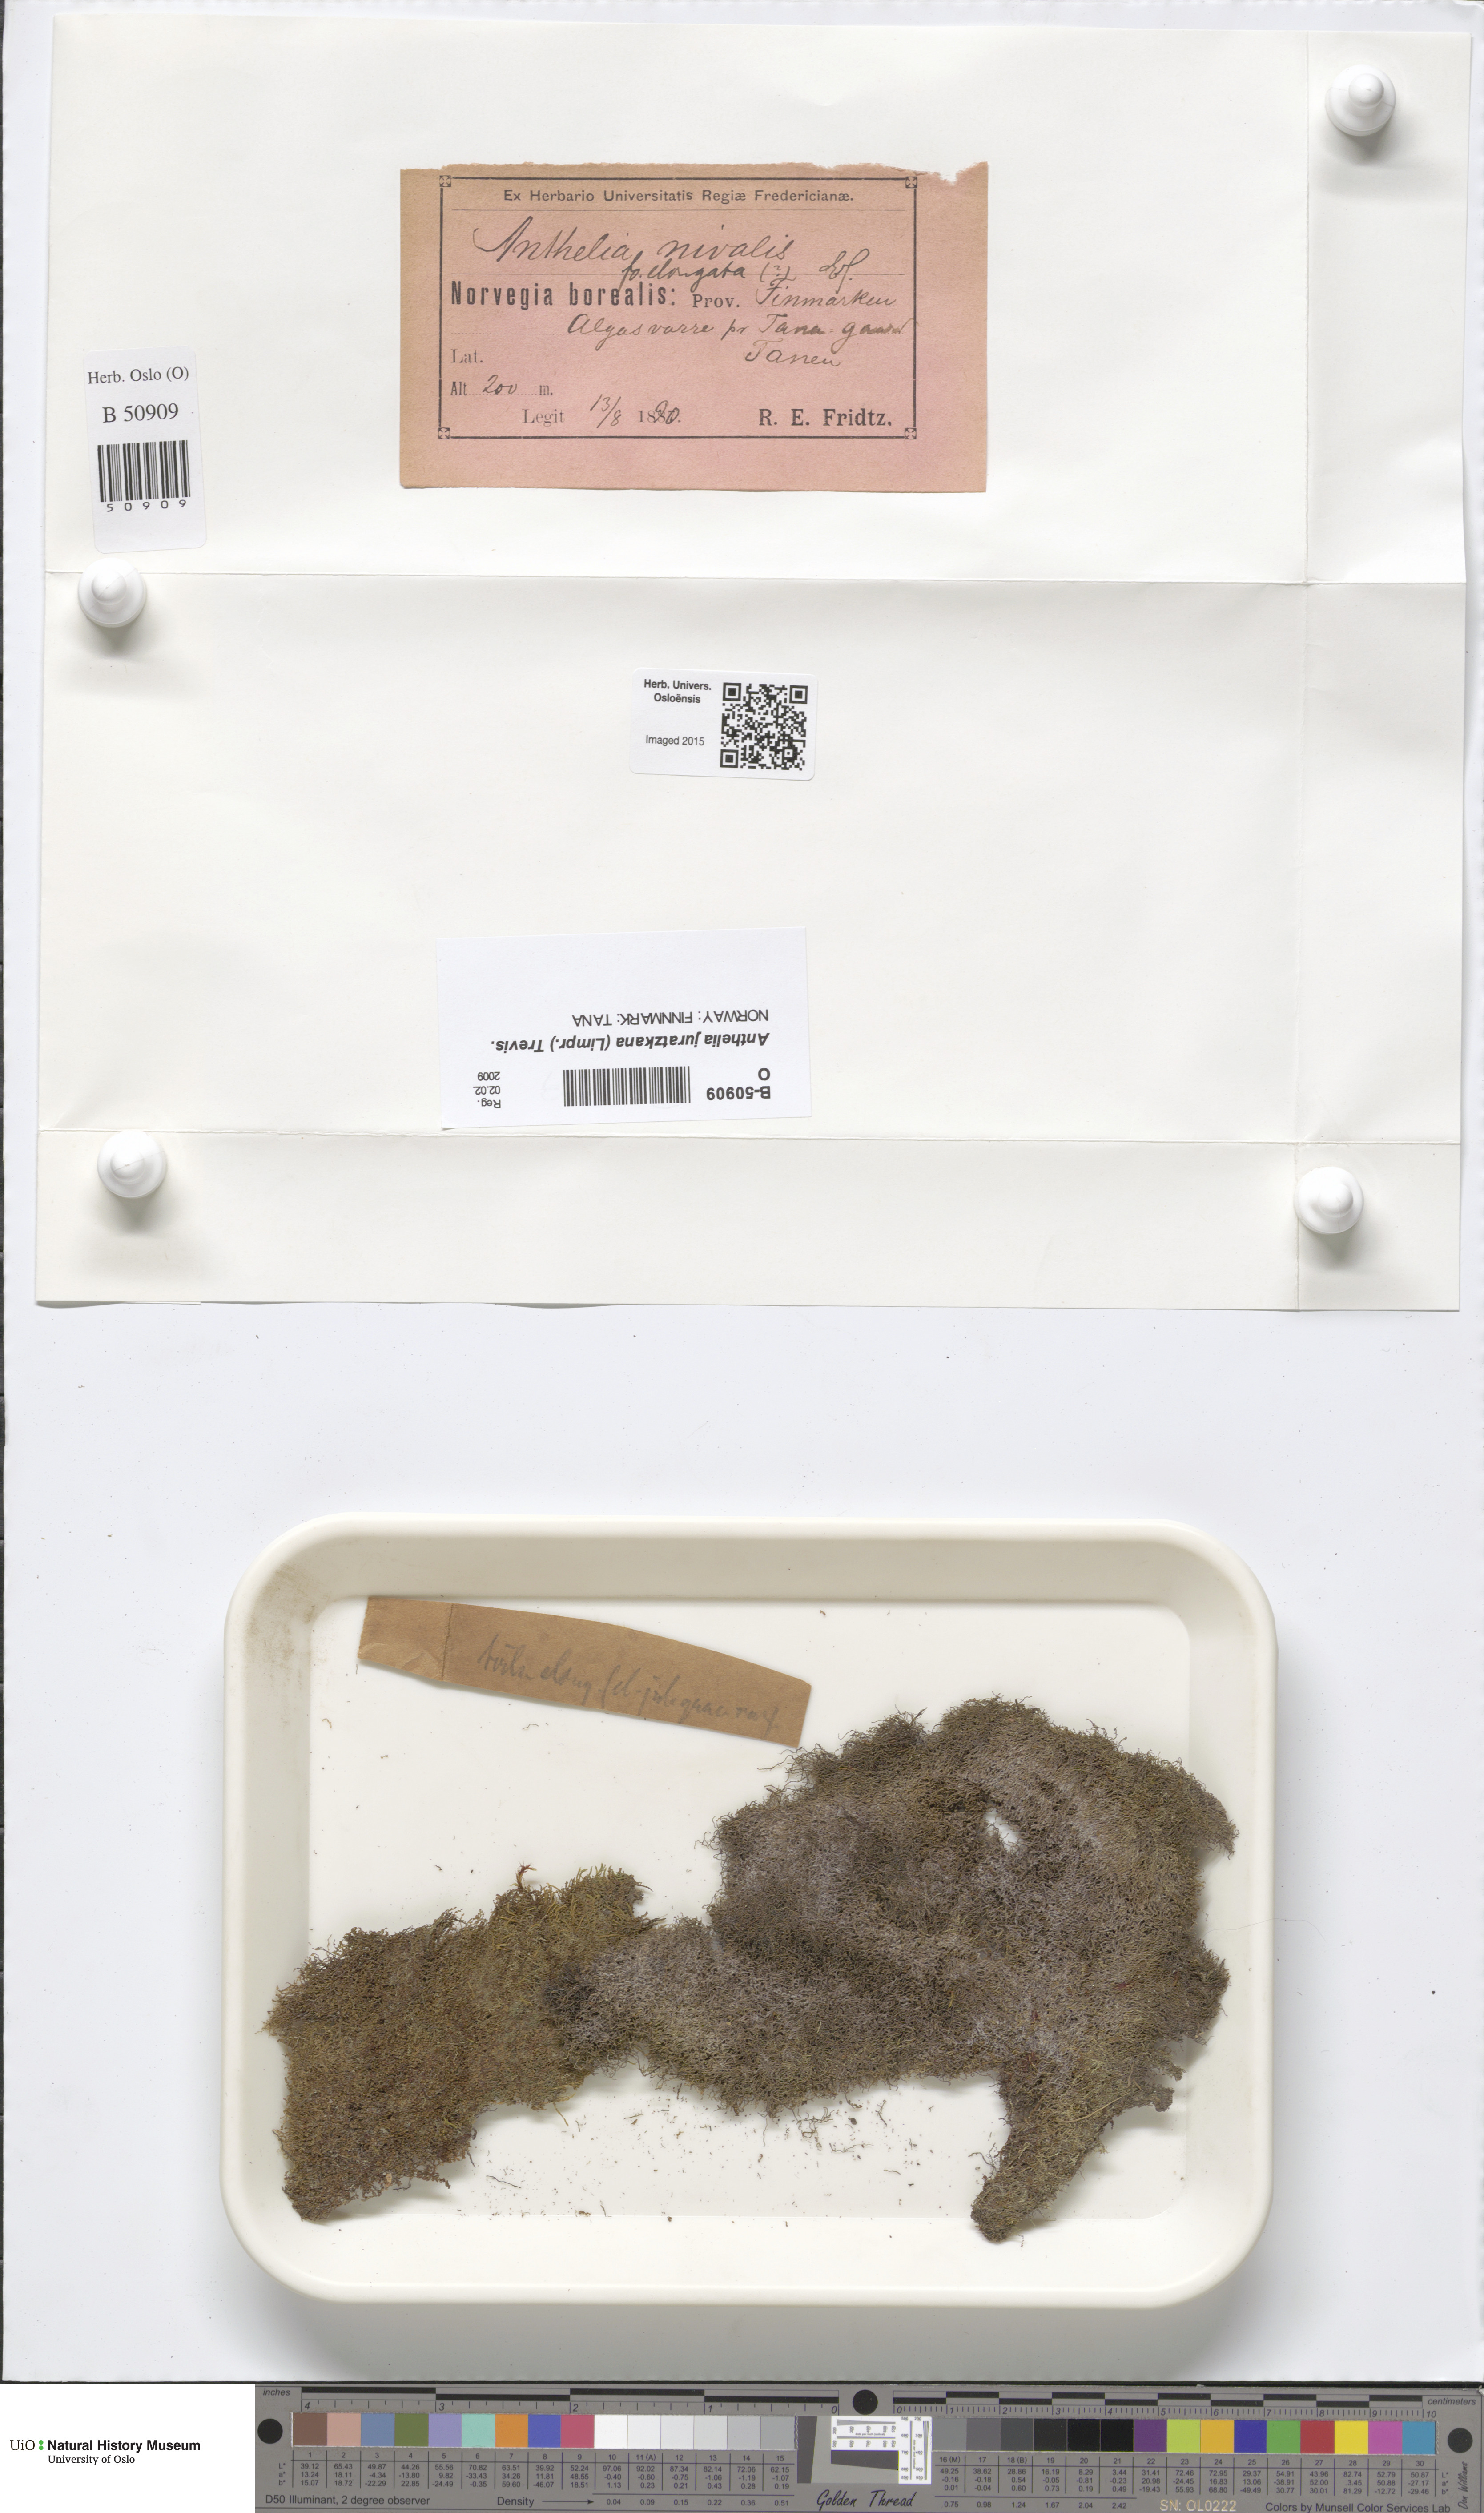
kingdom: Plantae
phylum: Marchantiophyta
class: Jungermanniopsida
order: Jungermanniales
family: Antheliaceae
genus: Anthelia
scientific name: Anthelia juratzkana
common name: Juratzka s silverwort
